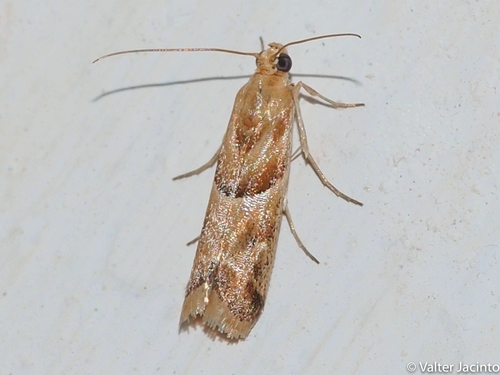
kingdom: Animalia
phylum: Arthropoda
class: Insecta
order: Lepidoptera
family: Pyralidae
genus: Ancylosis
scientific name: Ancylosis cinnamomella
